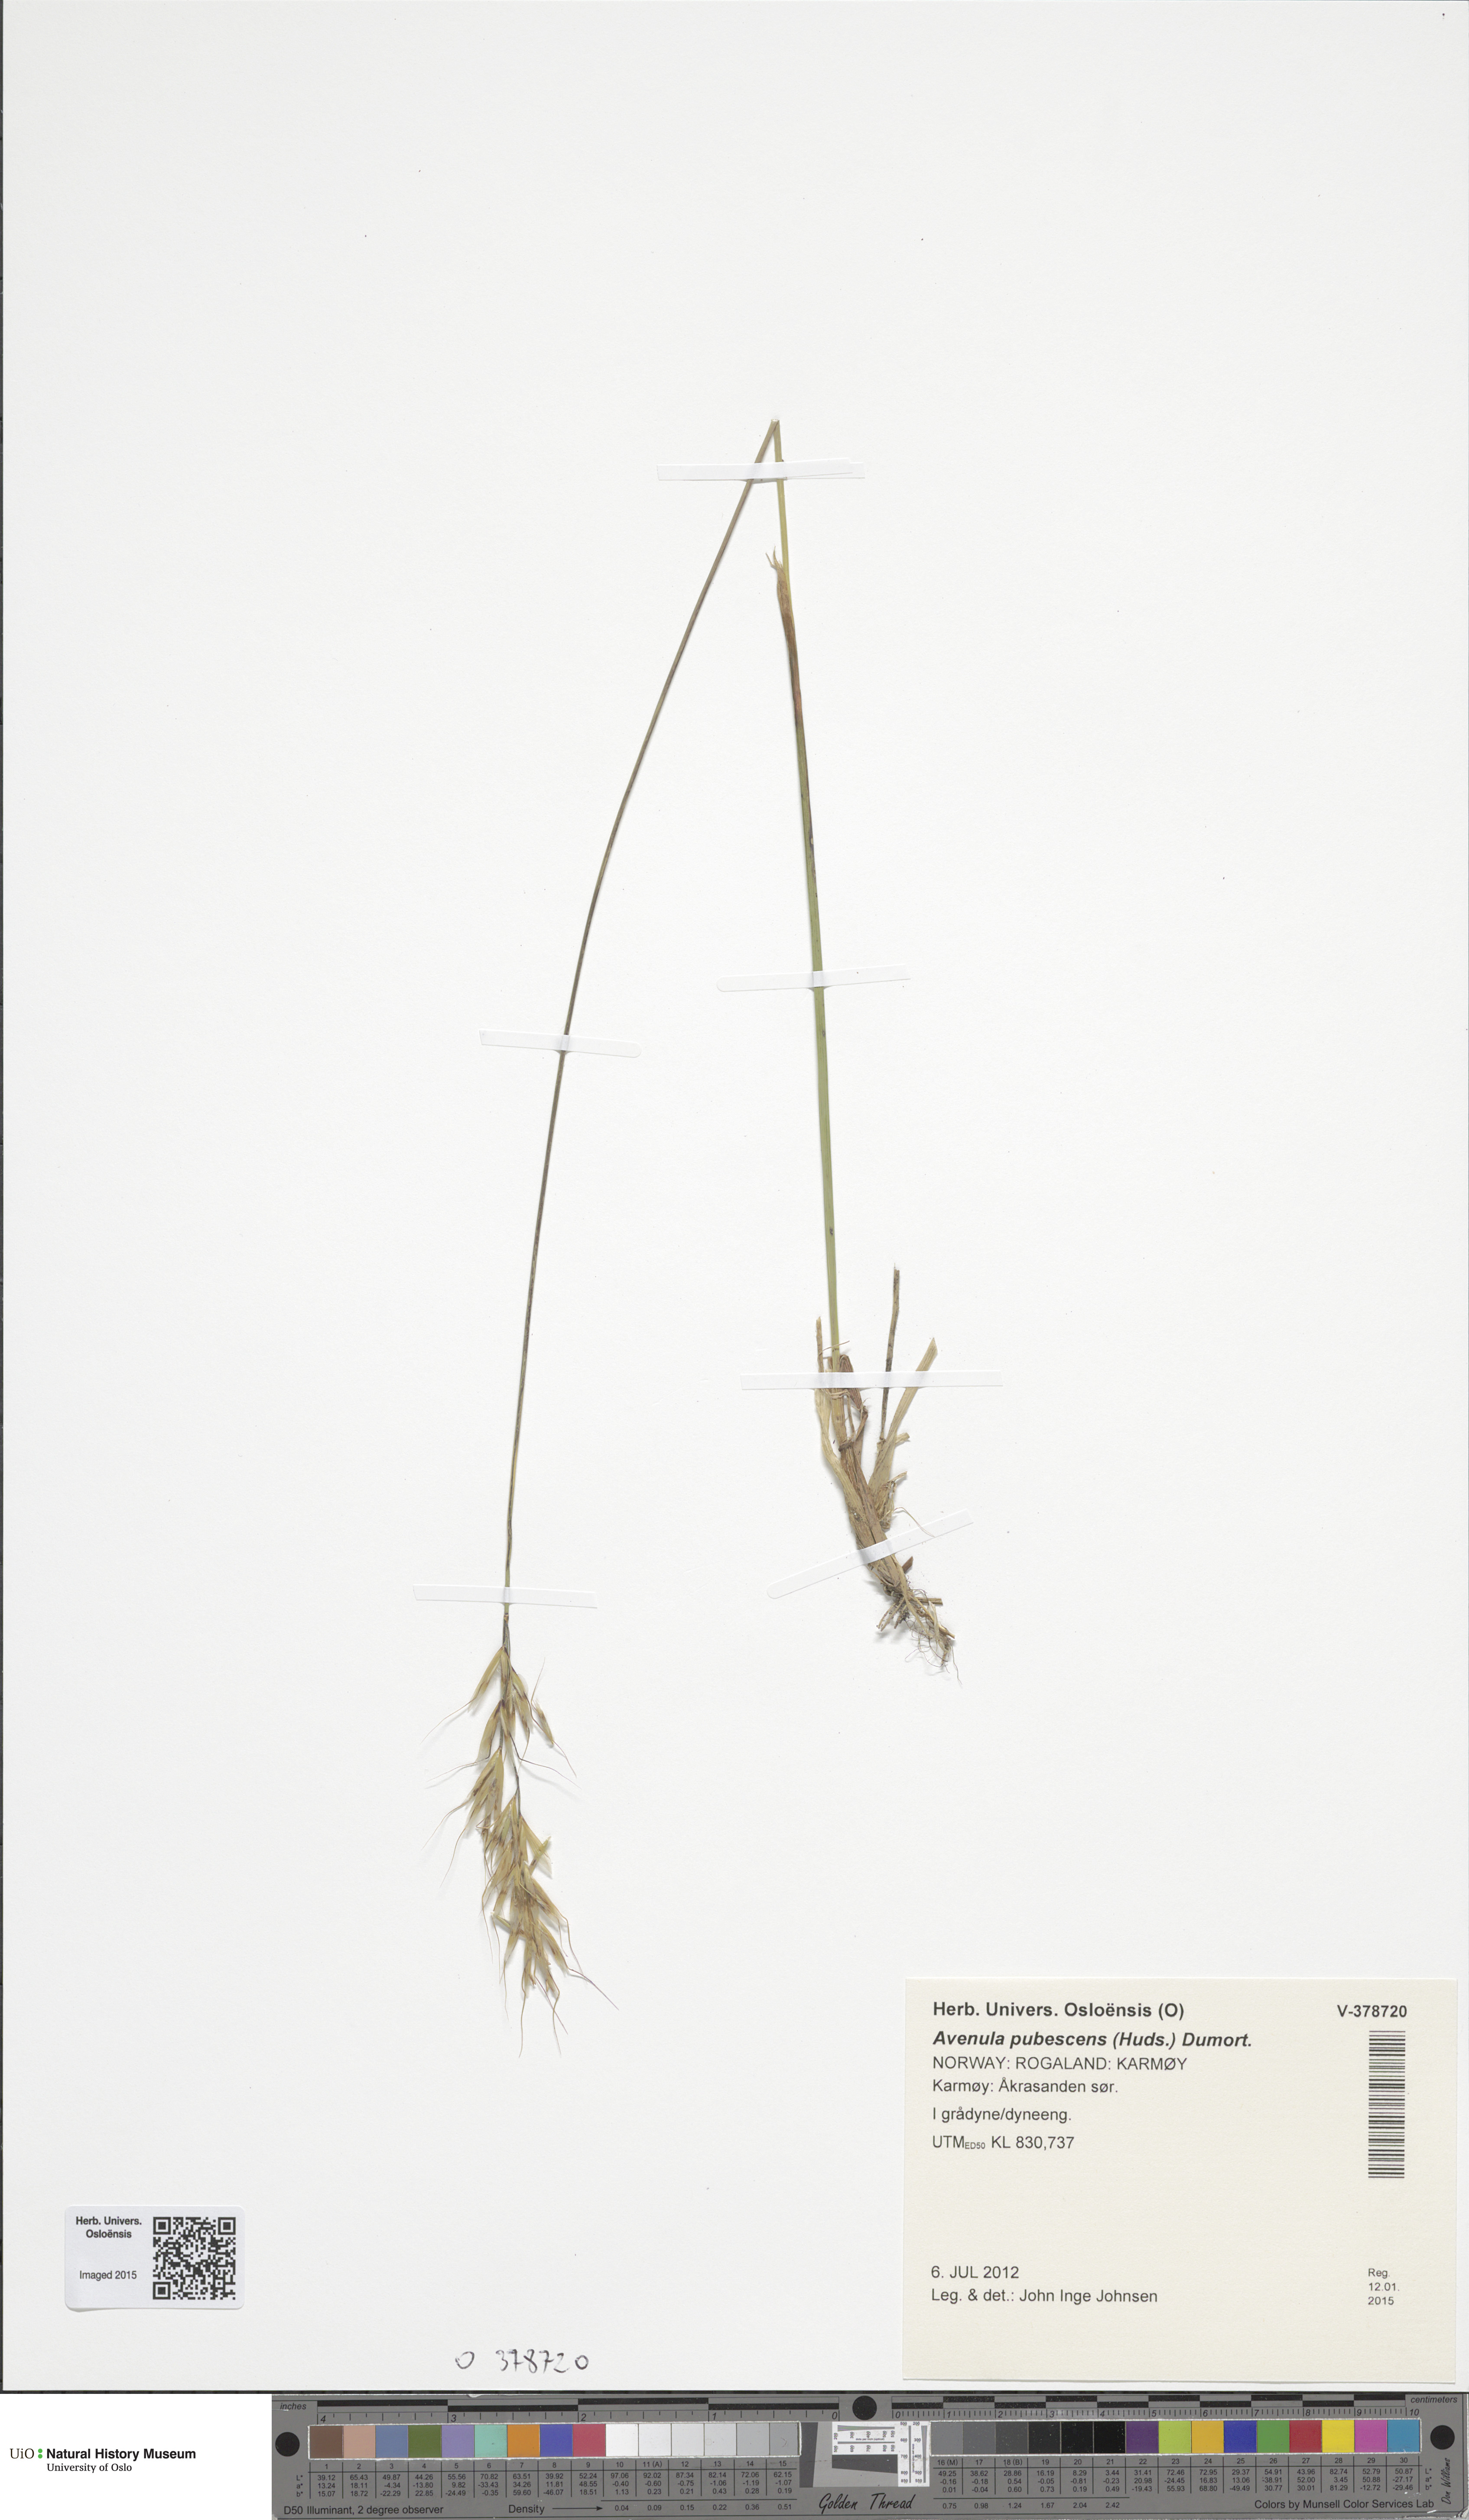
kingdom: Plantae
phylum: Tracheophyta
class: Liliopsida
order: Poales
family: Poaceae
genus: Avenula
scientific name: Avenula pubescens
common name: Downy alpine oatgrass
